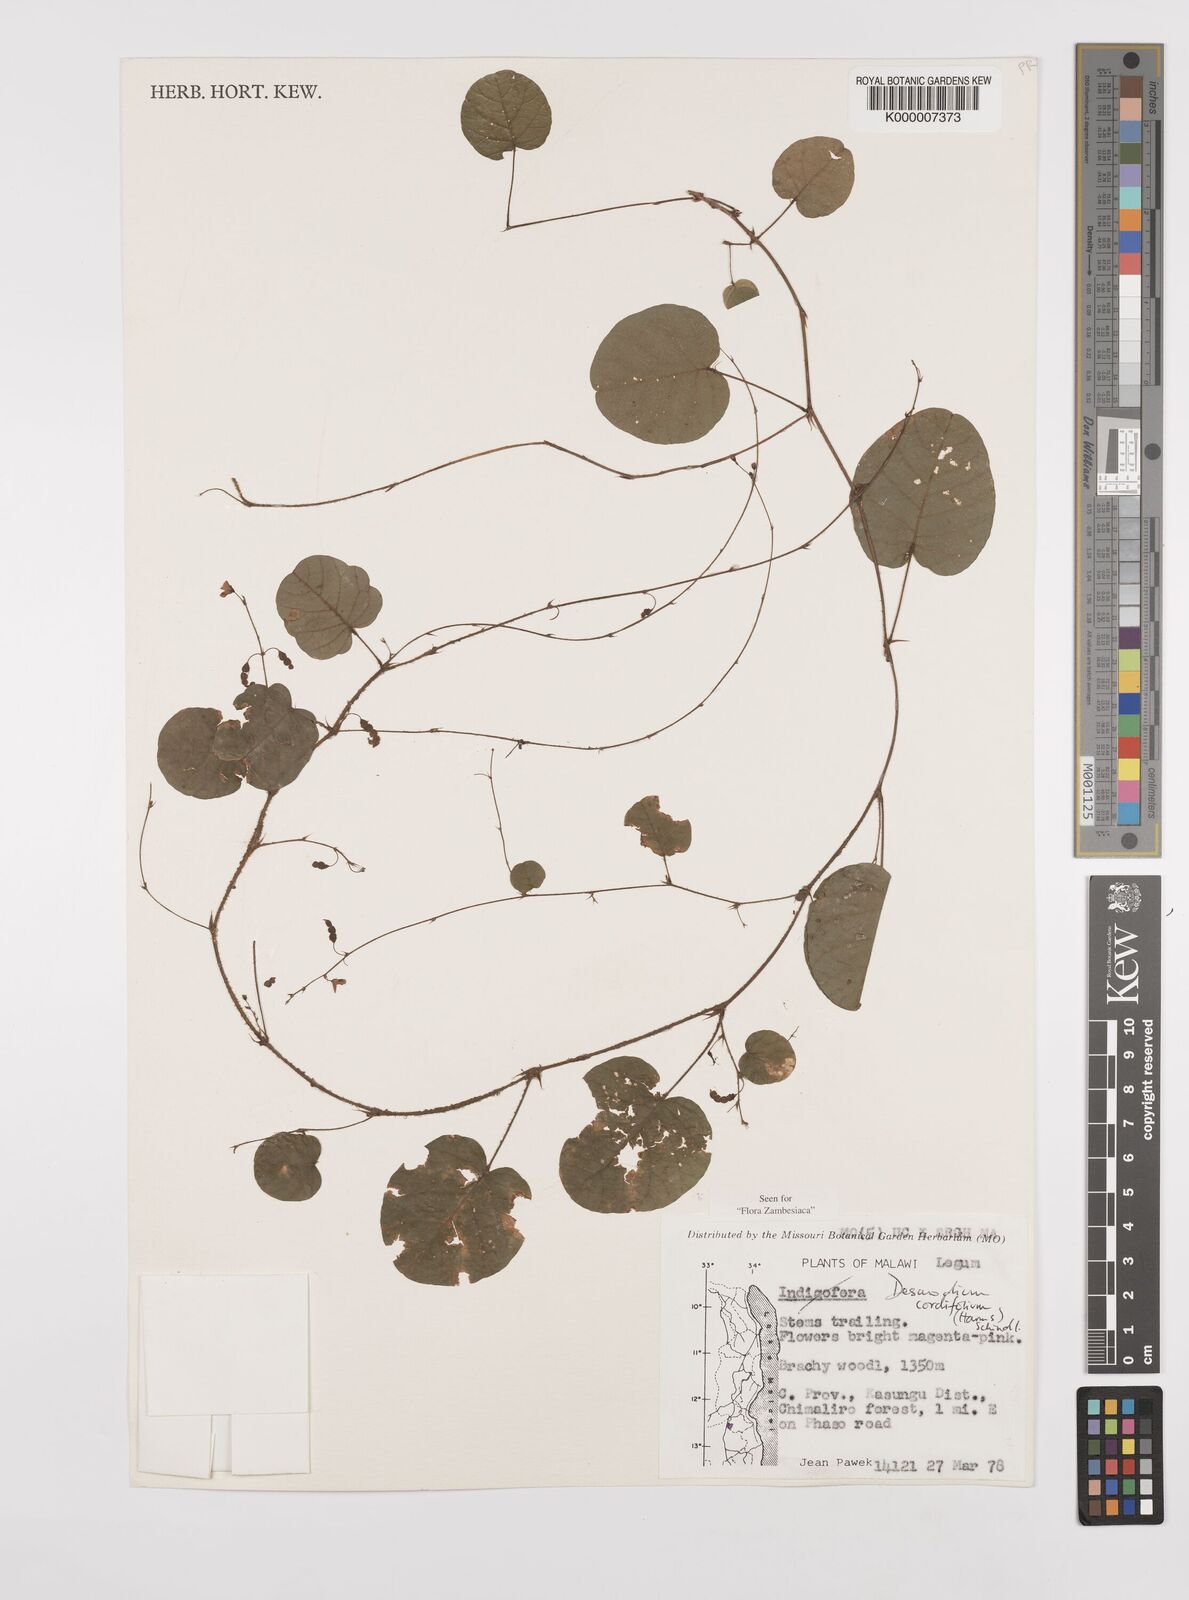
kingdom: Plantae
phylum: Tracheophyta
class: Magnoliopsida
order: Fabales
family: Fabaceae
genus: Grona
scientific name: Grona cordifolia
